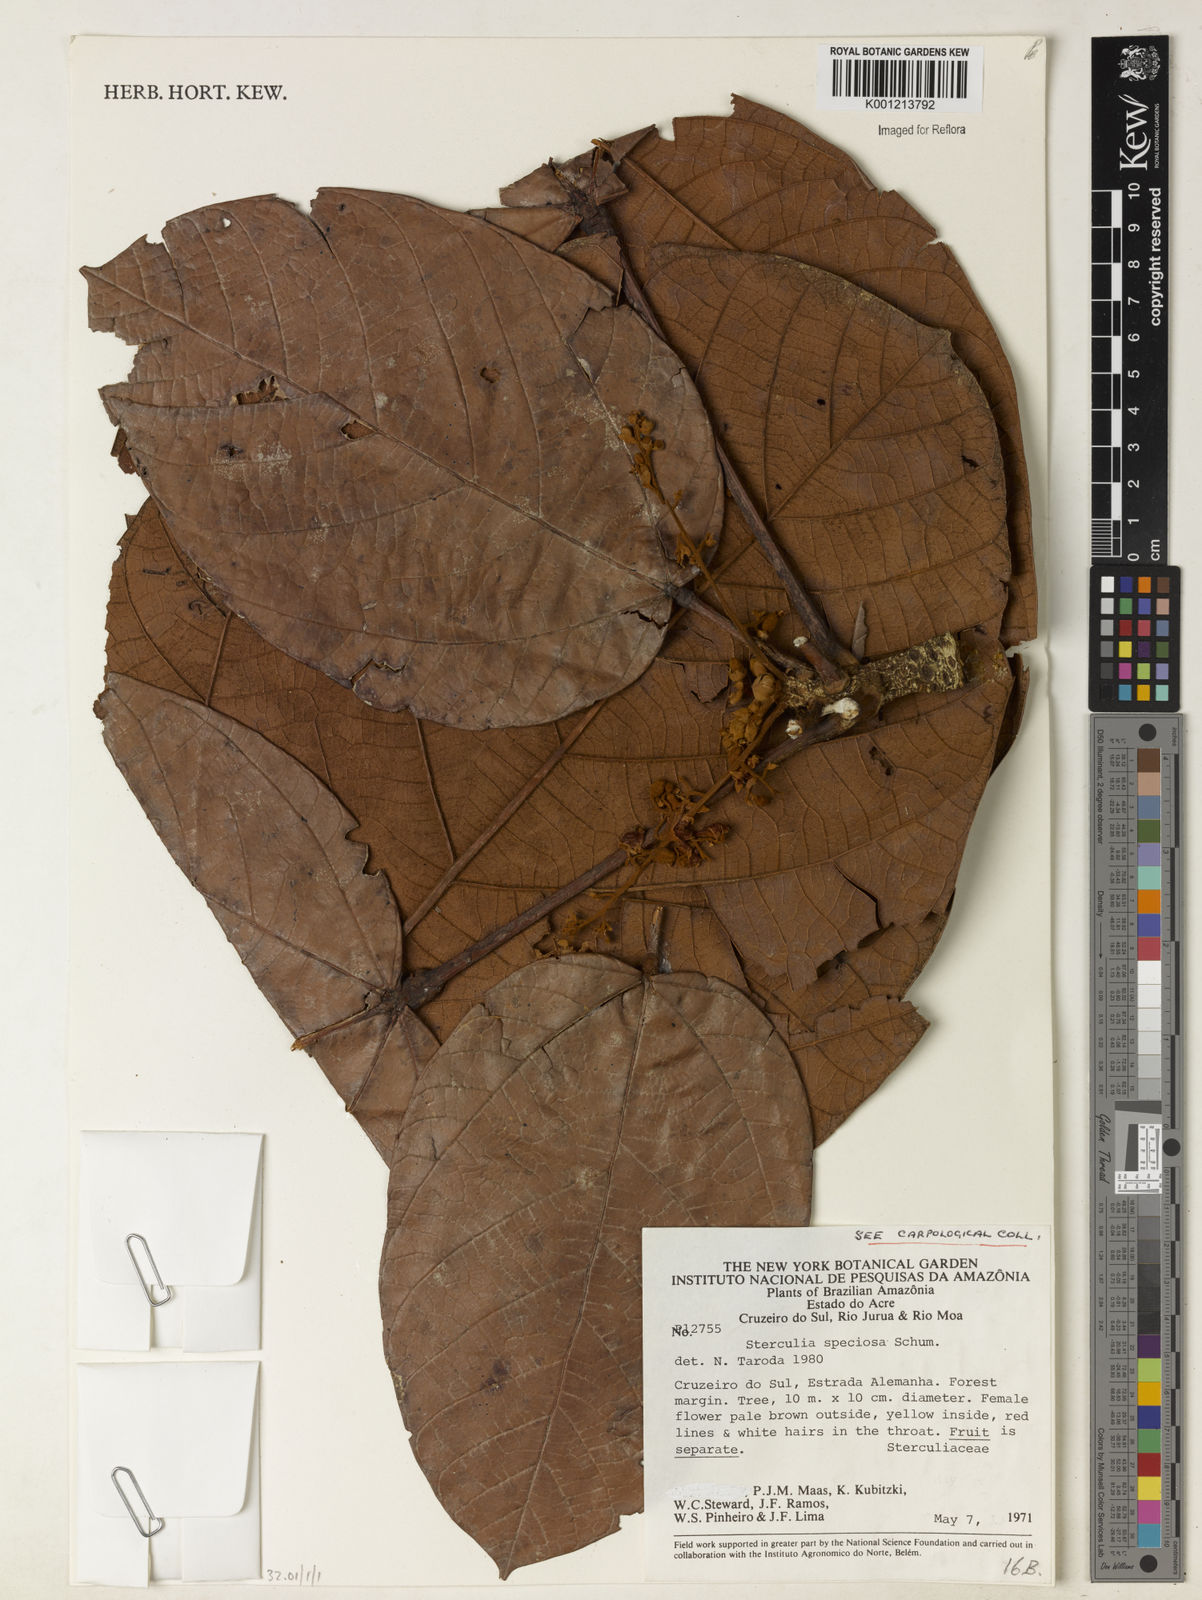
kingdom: Plantae
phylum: Tracheophyta
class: Magnoliopsida
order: Malvales
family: Malvaceae
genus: Sterculia
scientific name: Sterculia speciosa
